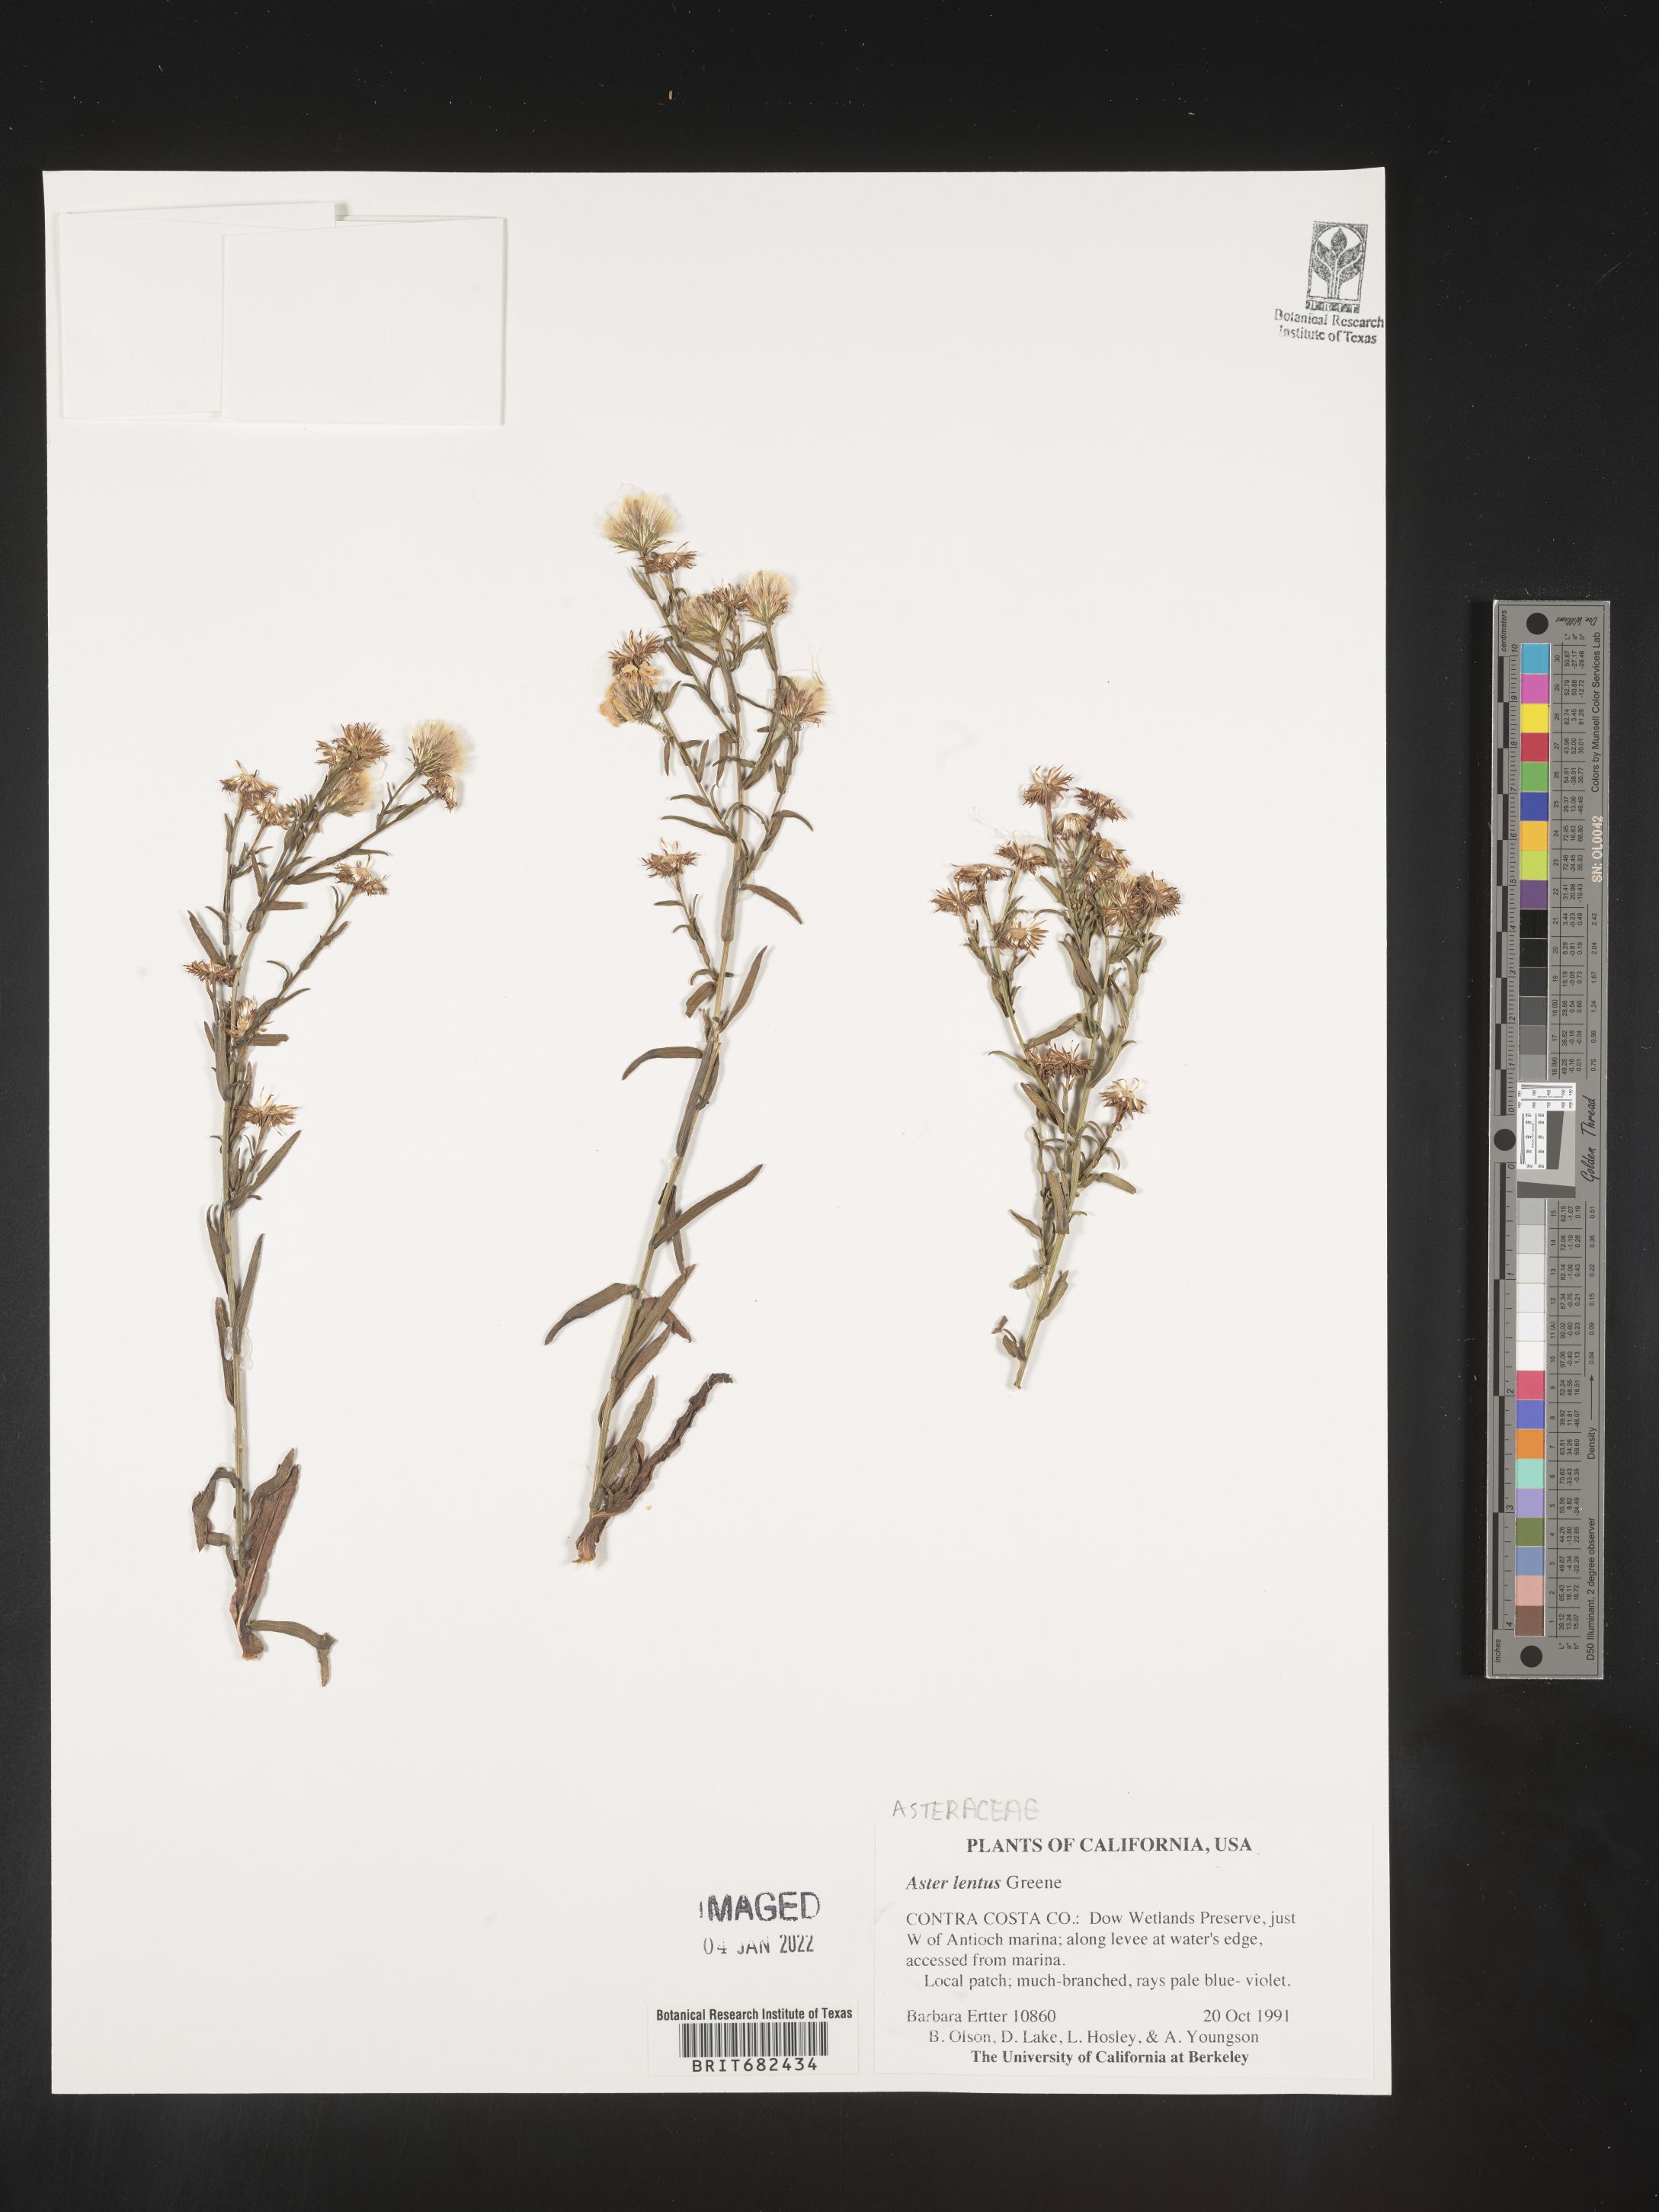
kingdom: Plantae
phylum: Tracheophyta
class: Magnoliopsida
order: Asterales
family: Asteraceae
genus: Aster
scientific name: Aster
